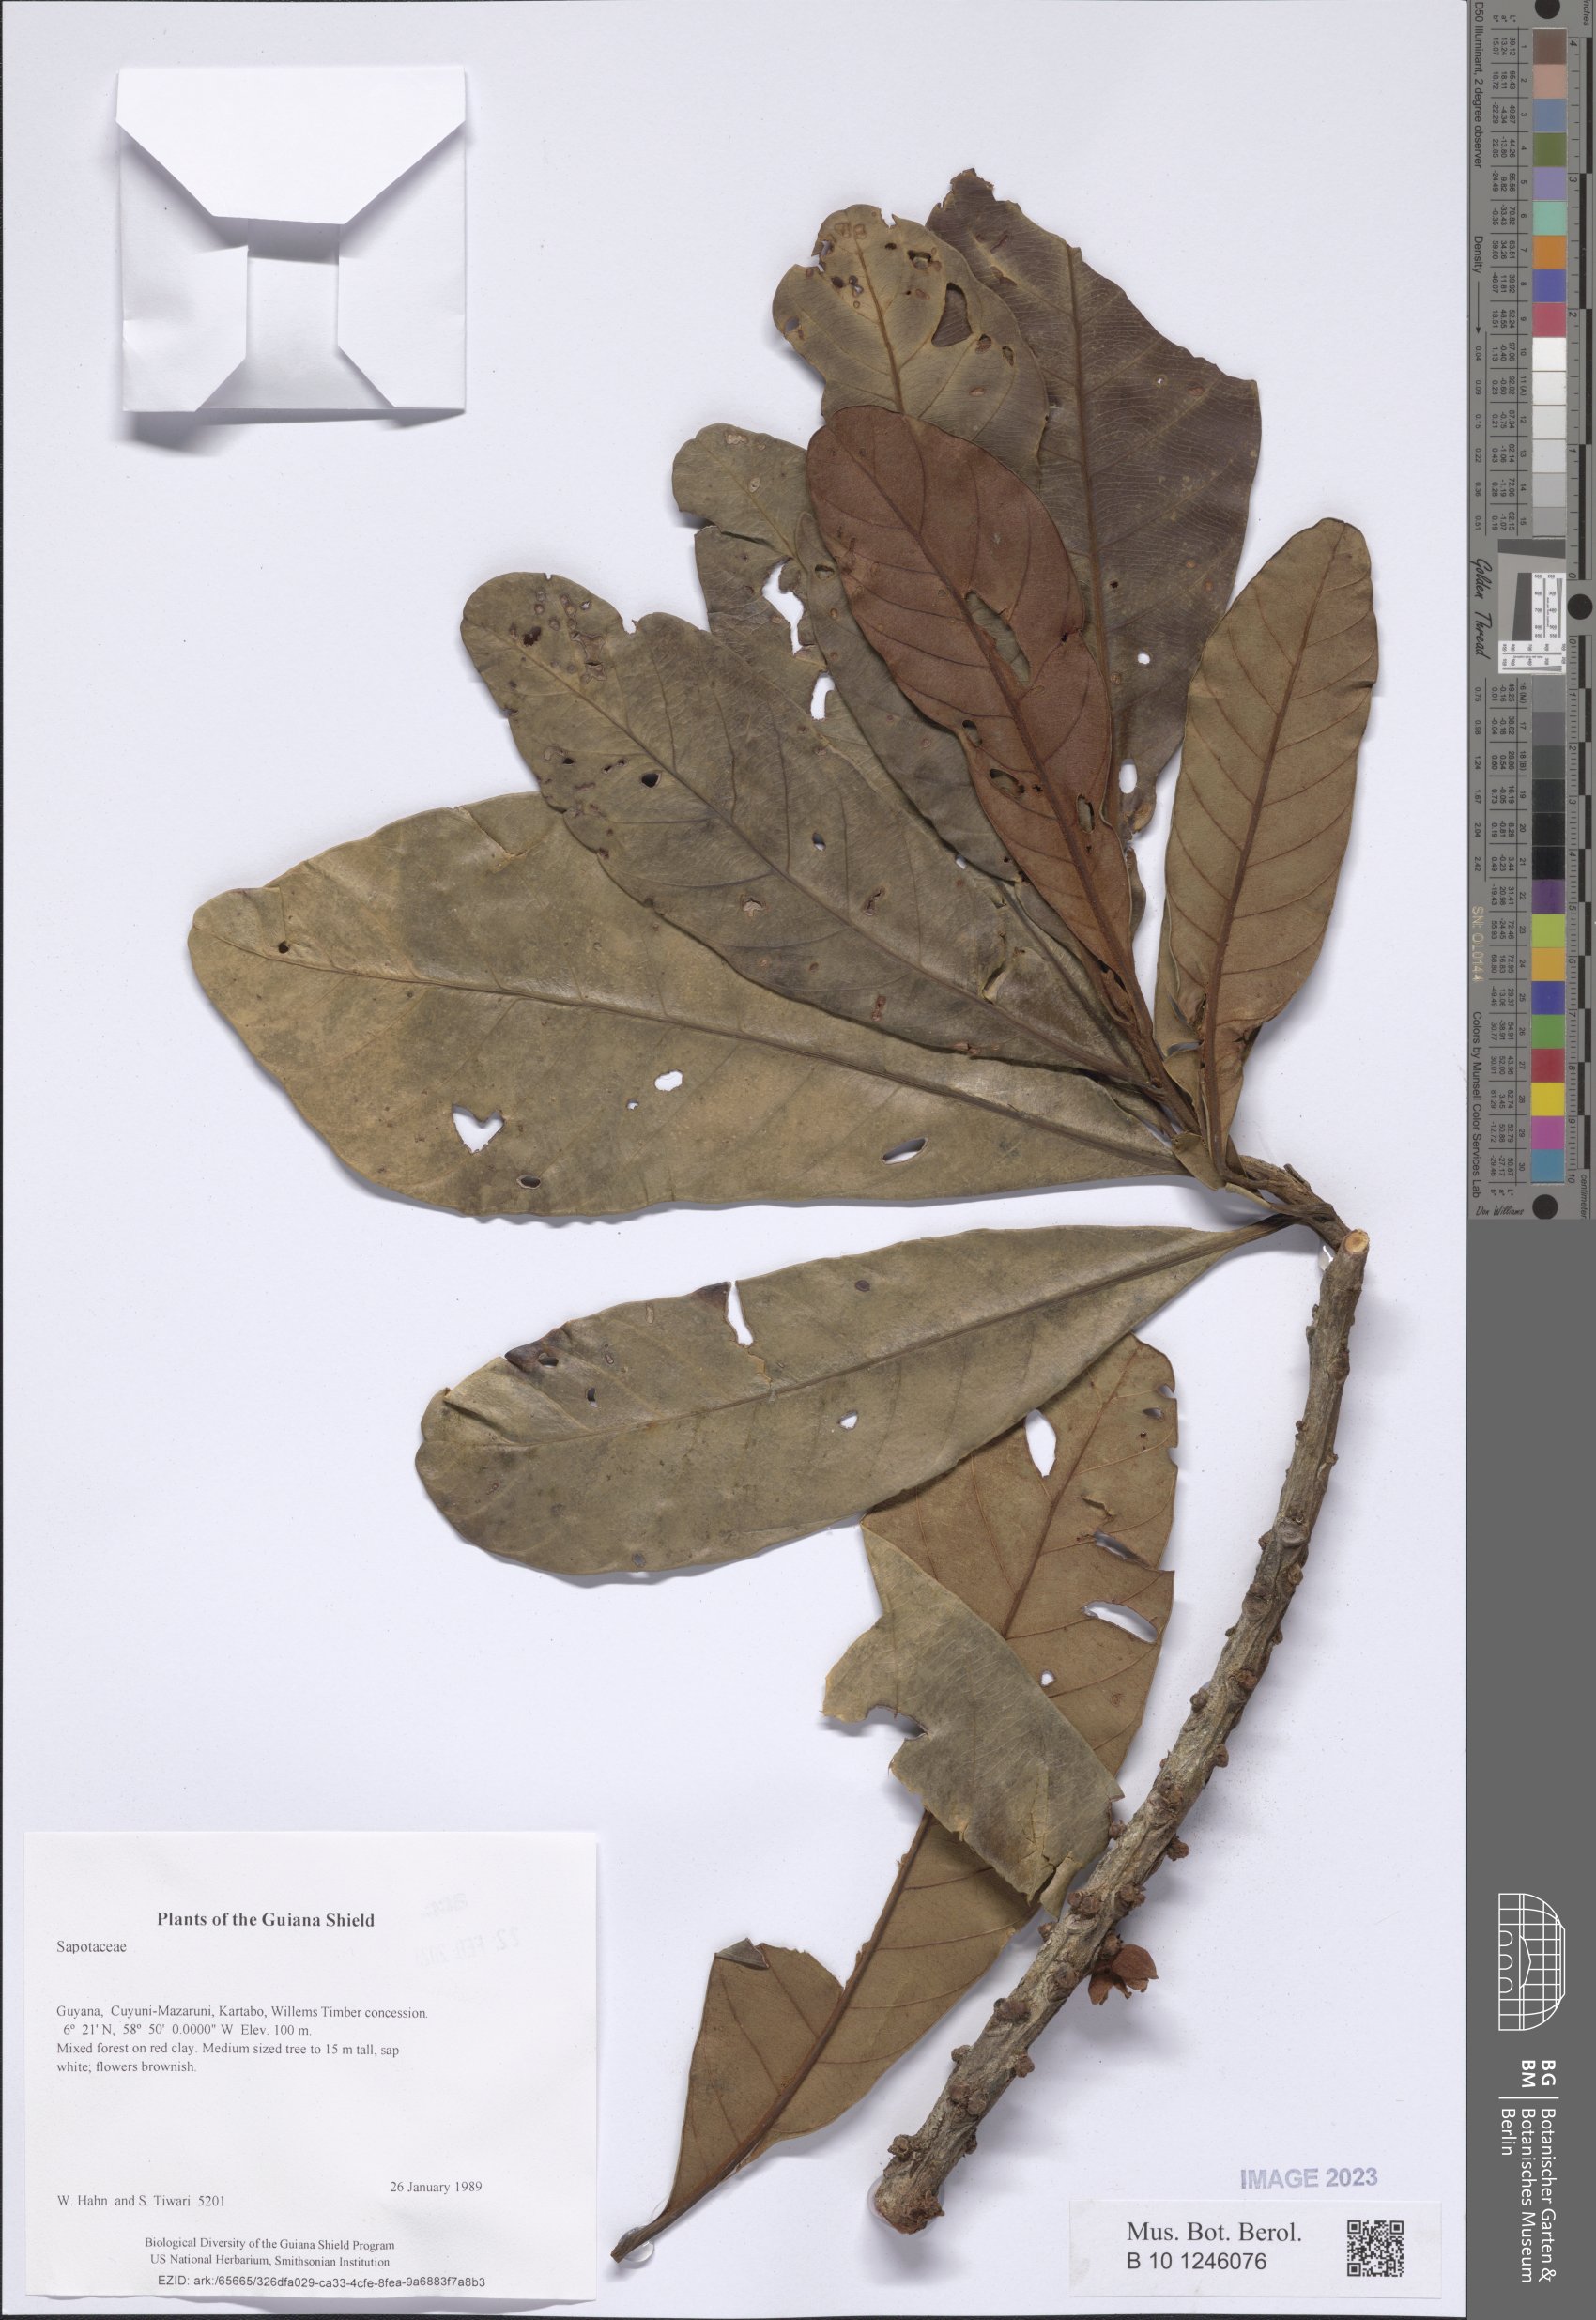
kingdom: Plantae
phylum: Tracheophyta
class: Magnoliopsida
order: Ericales
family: Sapotaceae
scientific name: Sapotaceae
